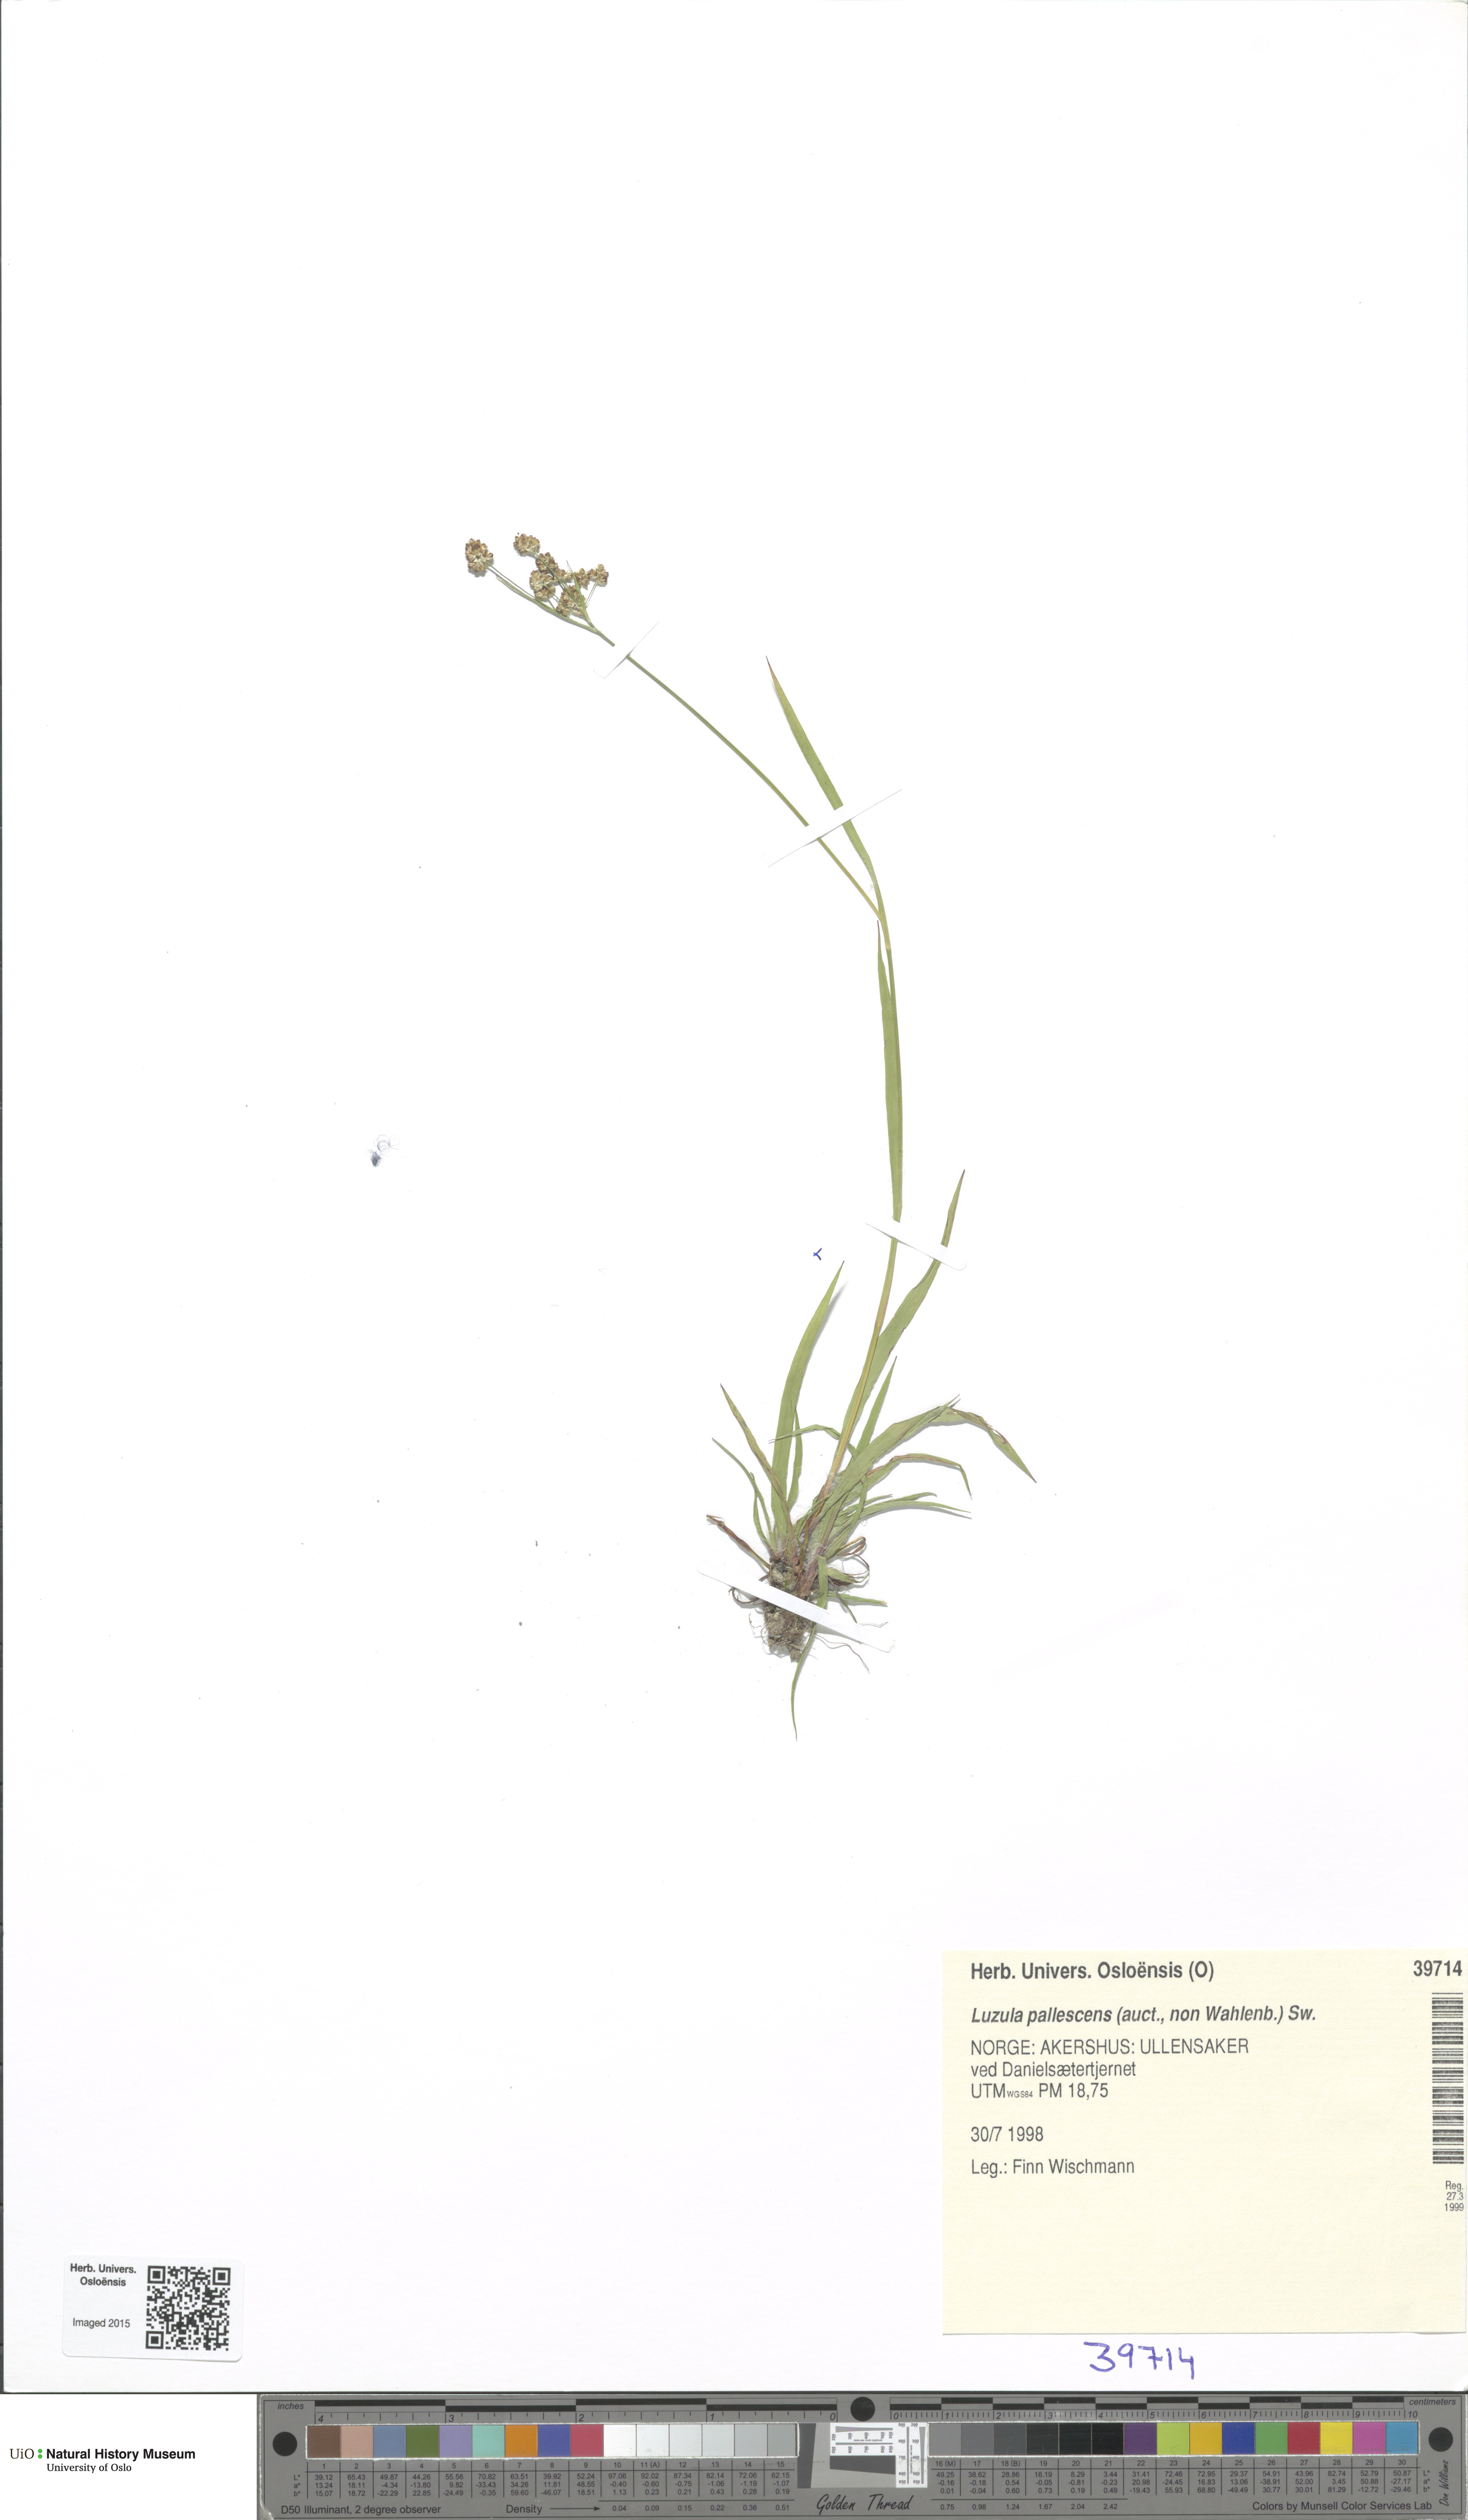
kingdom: Plantae
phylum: Tracheophyta
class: Liliopsida
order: Poales
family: Juncaceae
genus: Luzula
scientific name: Luzula pallescens
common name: Fen wood-rush
